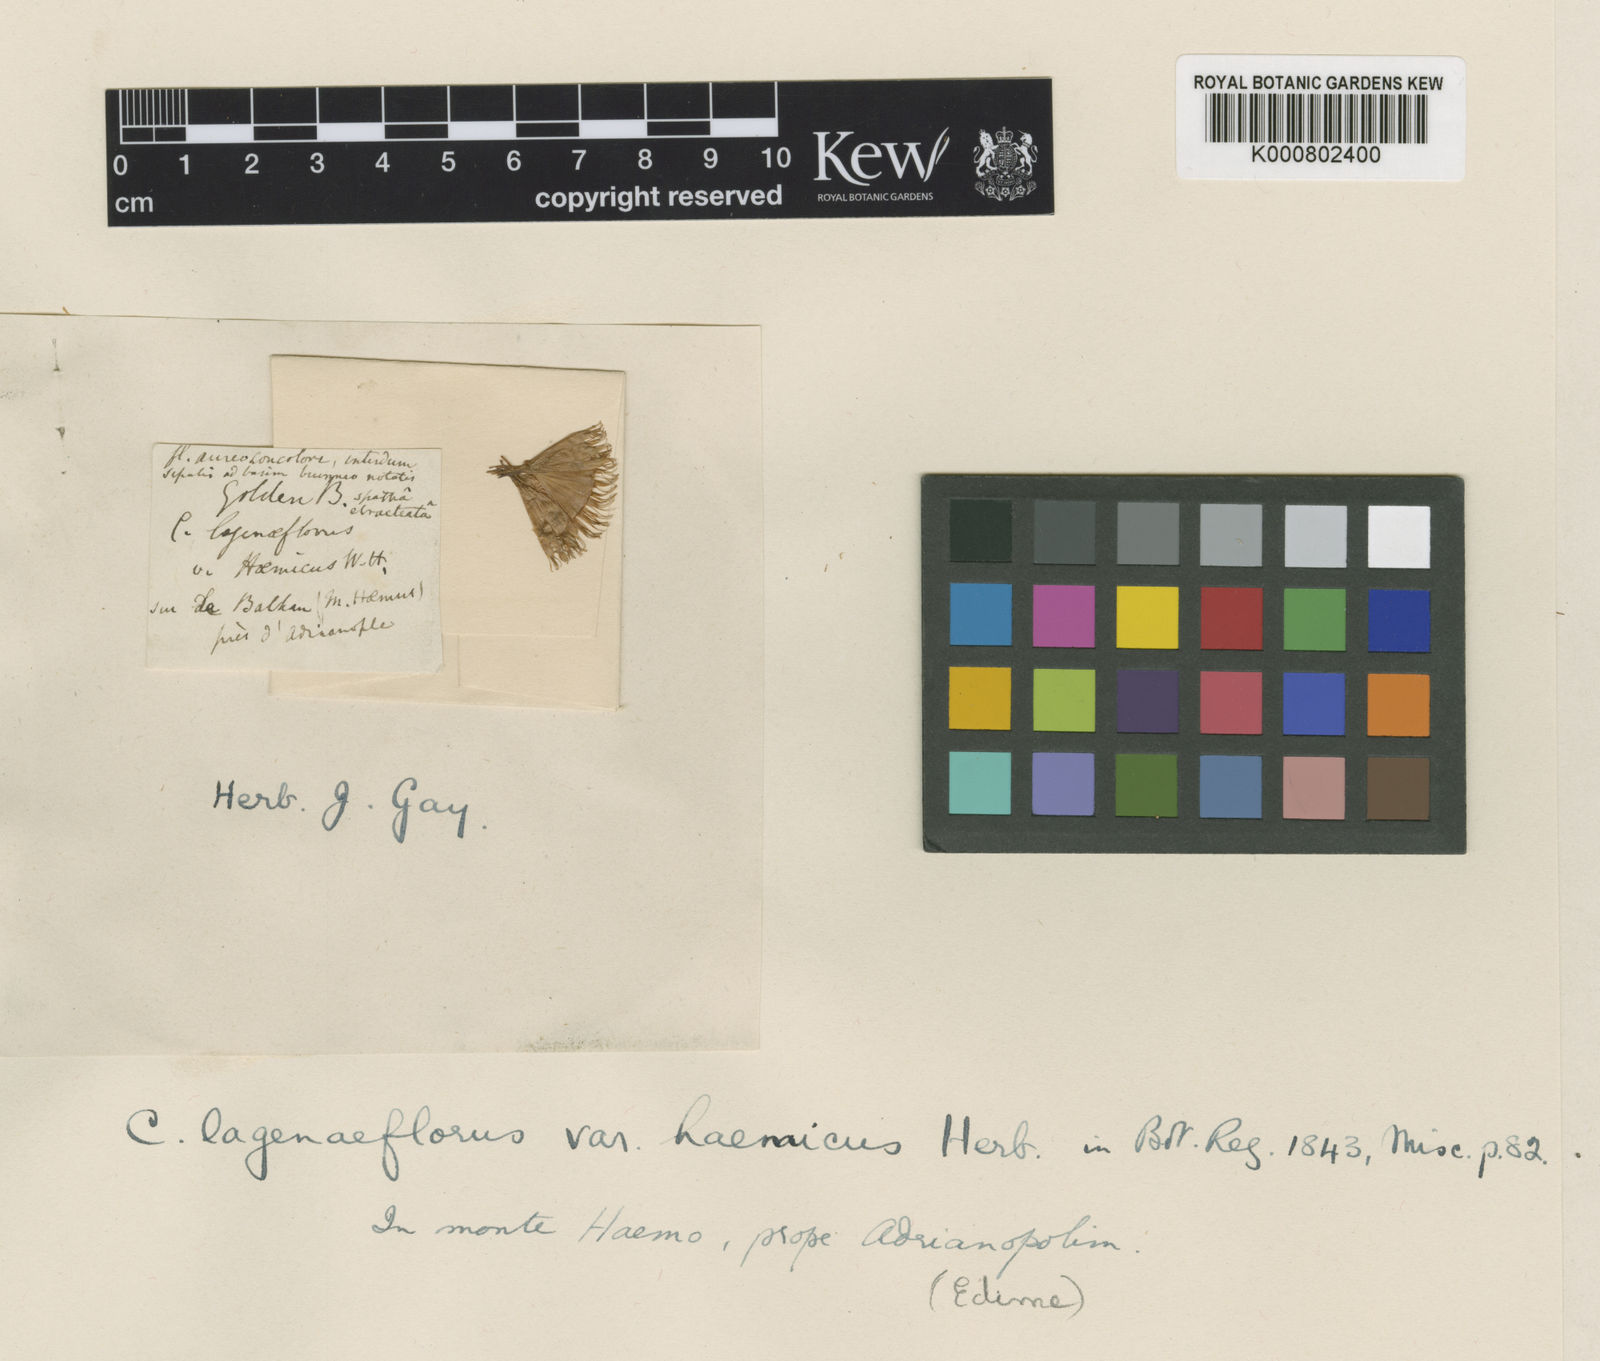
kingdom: Plantae
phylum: Tracheophyta
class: Liliopsida
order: Asparagales
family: Iridaceae
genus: Crocus
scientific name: Crocus
